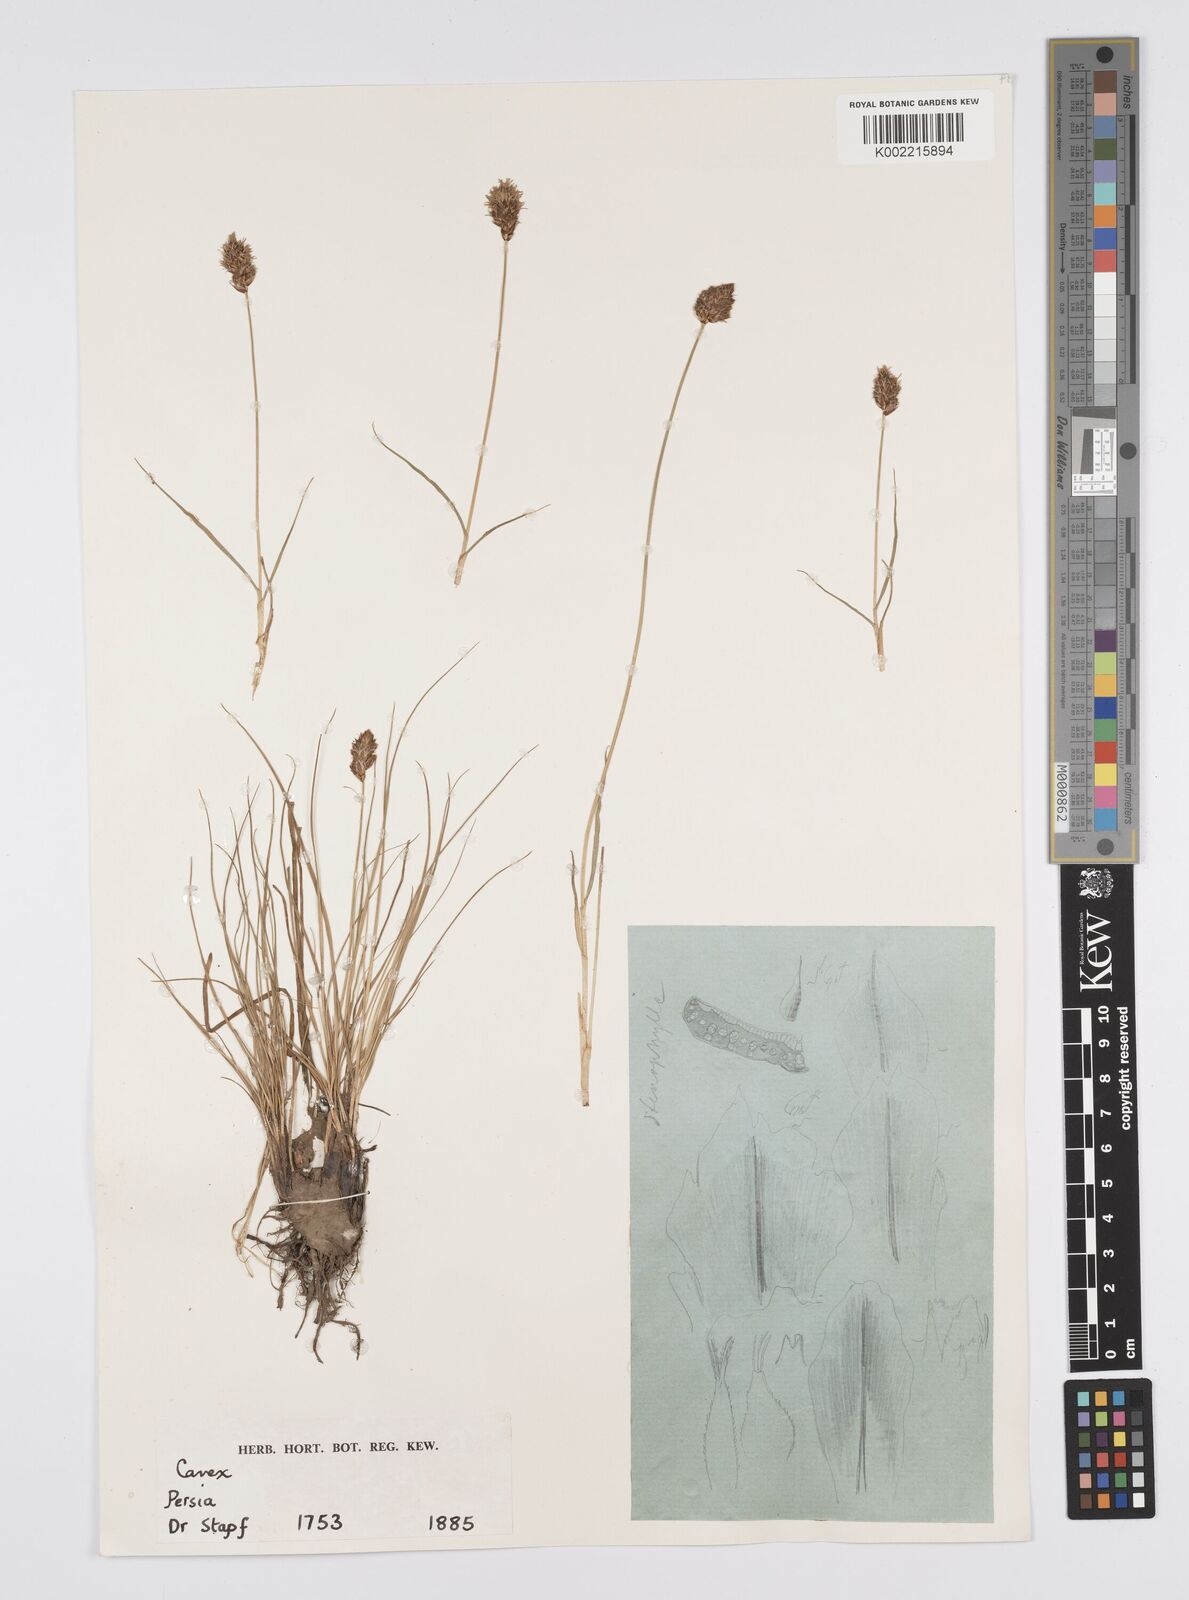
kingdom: Plantae
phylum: Tracheophyta
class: Liliopsida
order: Poales
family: Cyperaceae
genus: Carex
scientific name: Carex stenophylla
